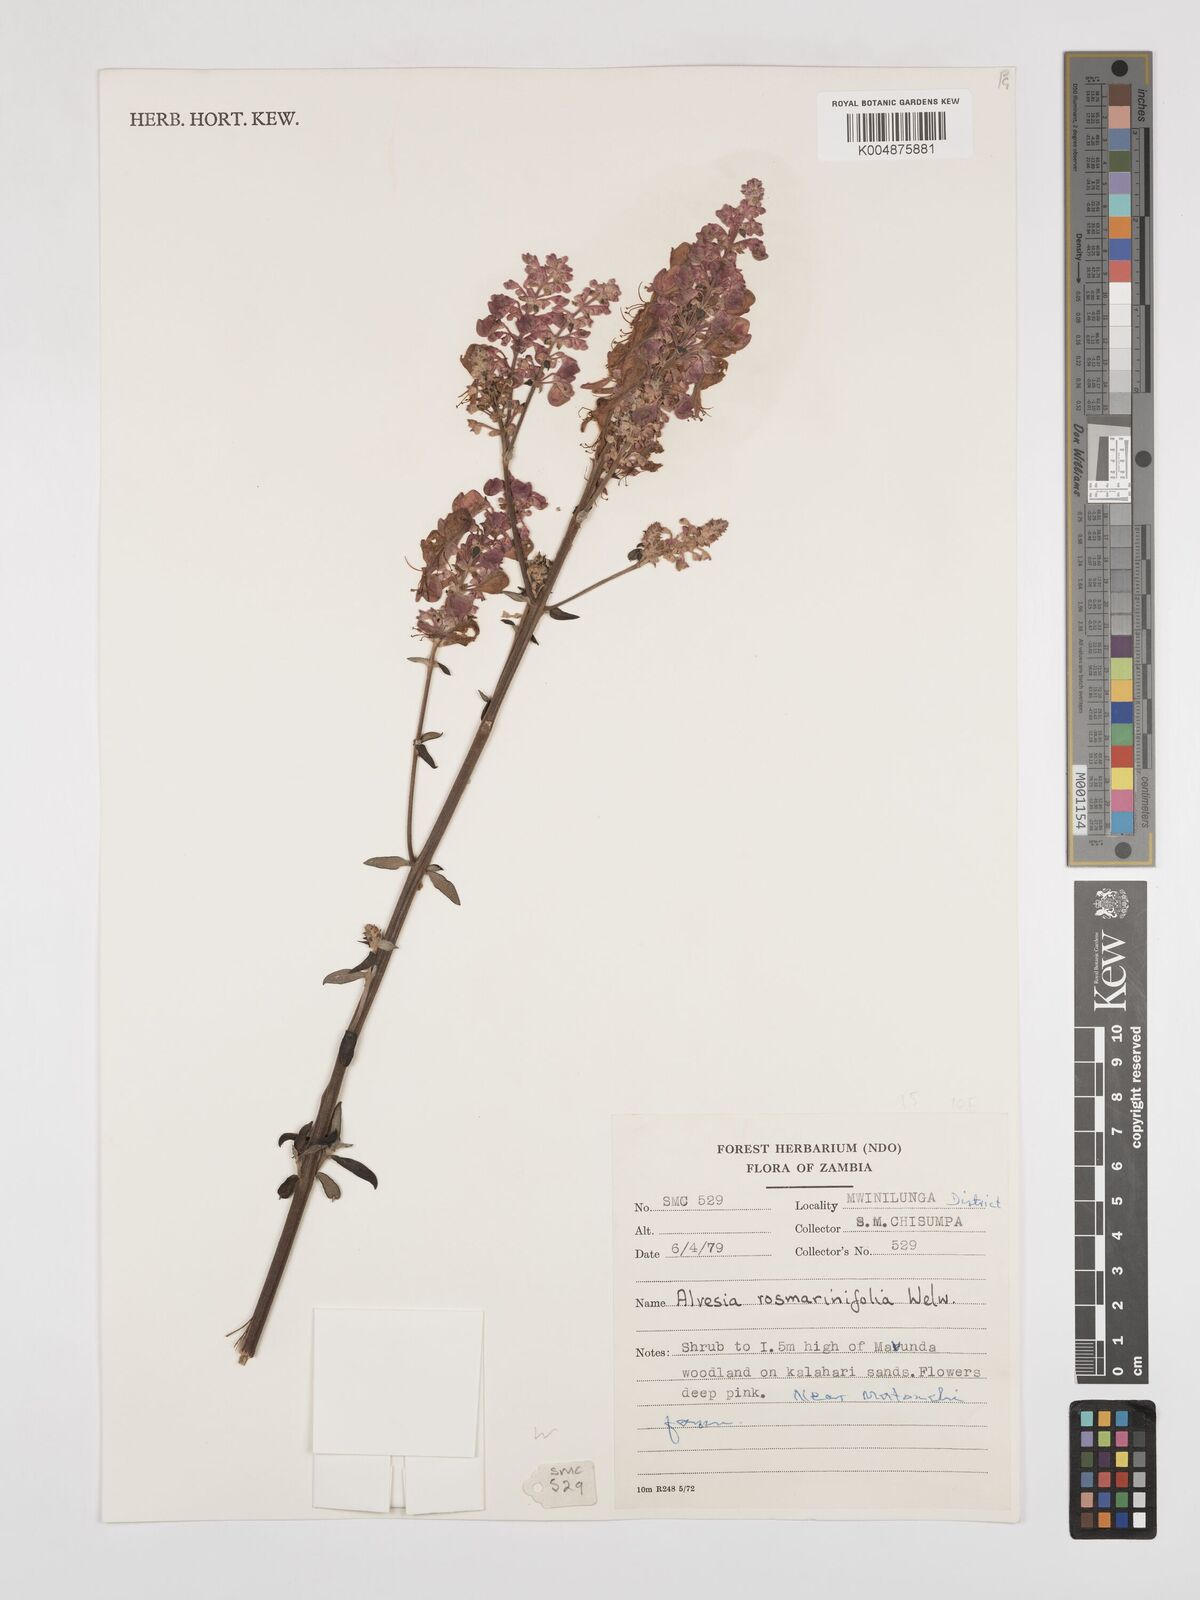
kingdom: Plantae
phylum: Tracheophyta
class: Magnoliopsida
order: Lamiales
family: Lamiaceae
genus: Alvesia
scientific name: Alvesia rosmarinifolia
